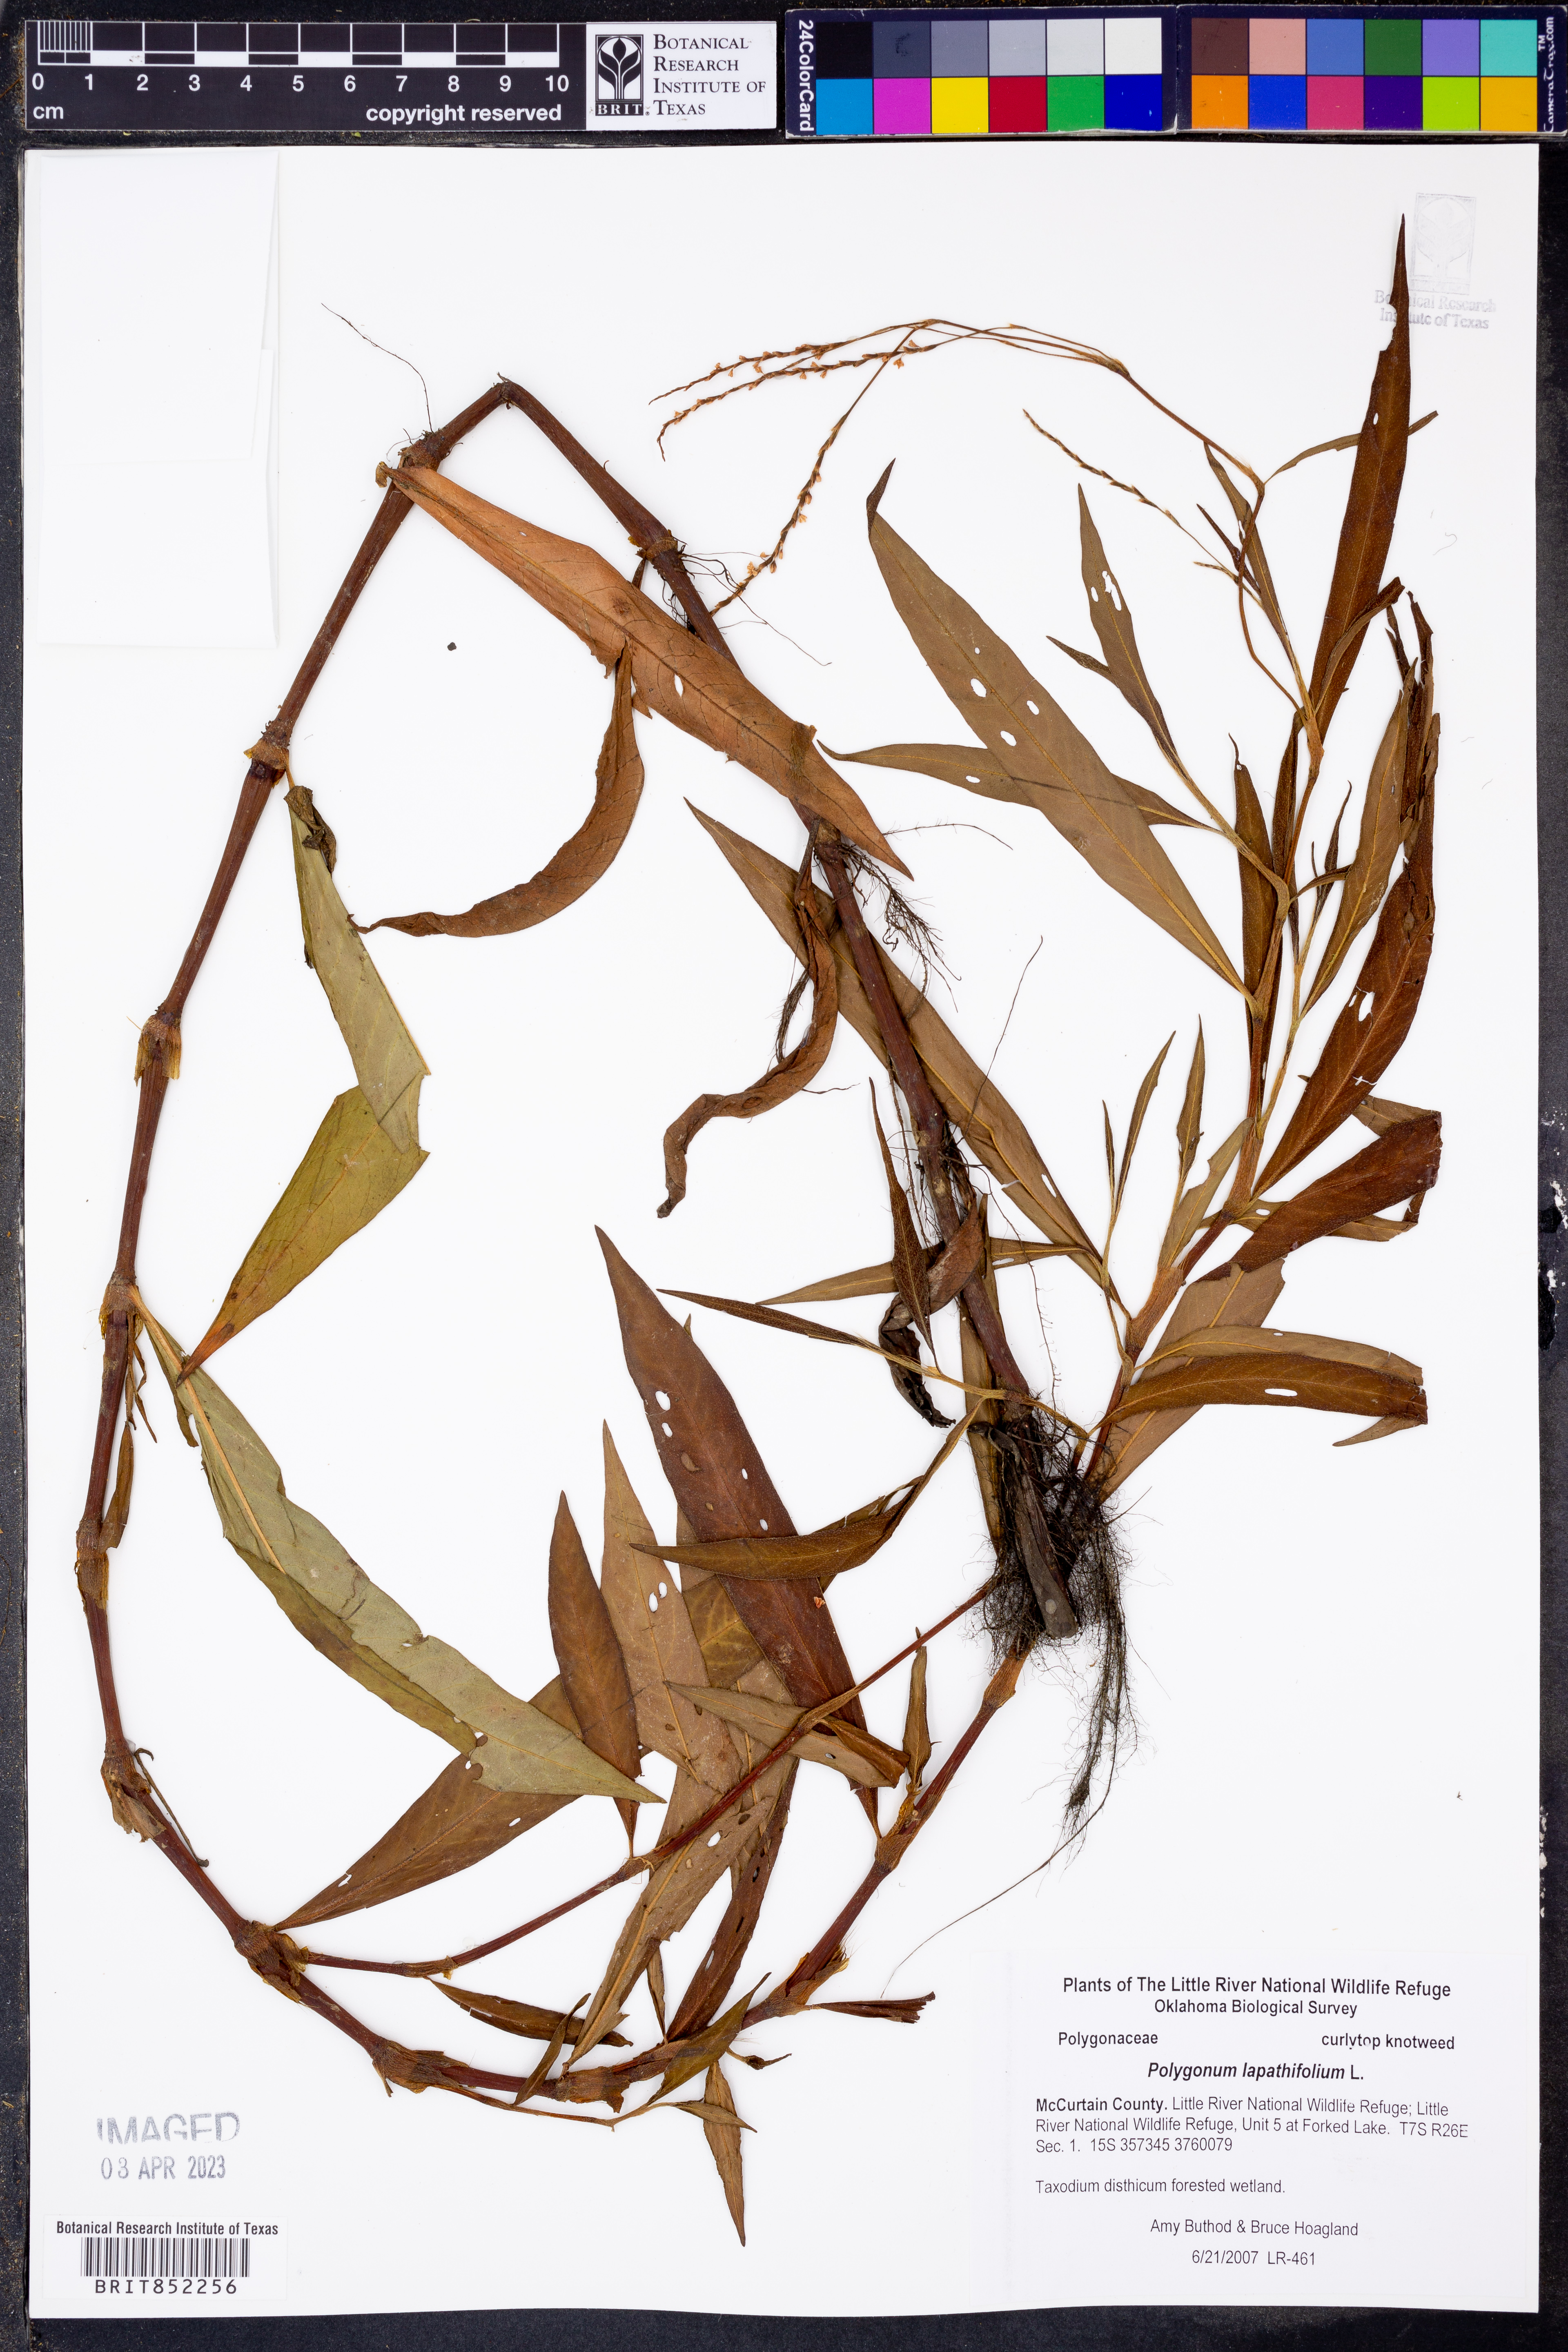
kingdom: Plantae
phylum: Tracheophyta
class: Magnoliopsida
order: Caryophyllales
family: Polygonaceae
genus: Persicaria
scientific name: Persicaria lapathifolia
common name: Curlytop knotweed
